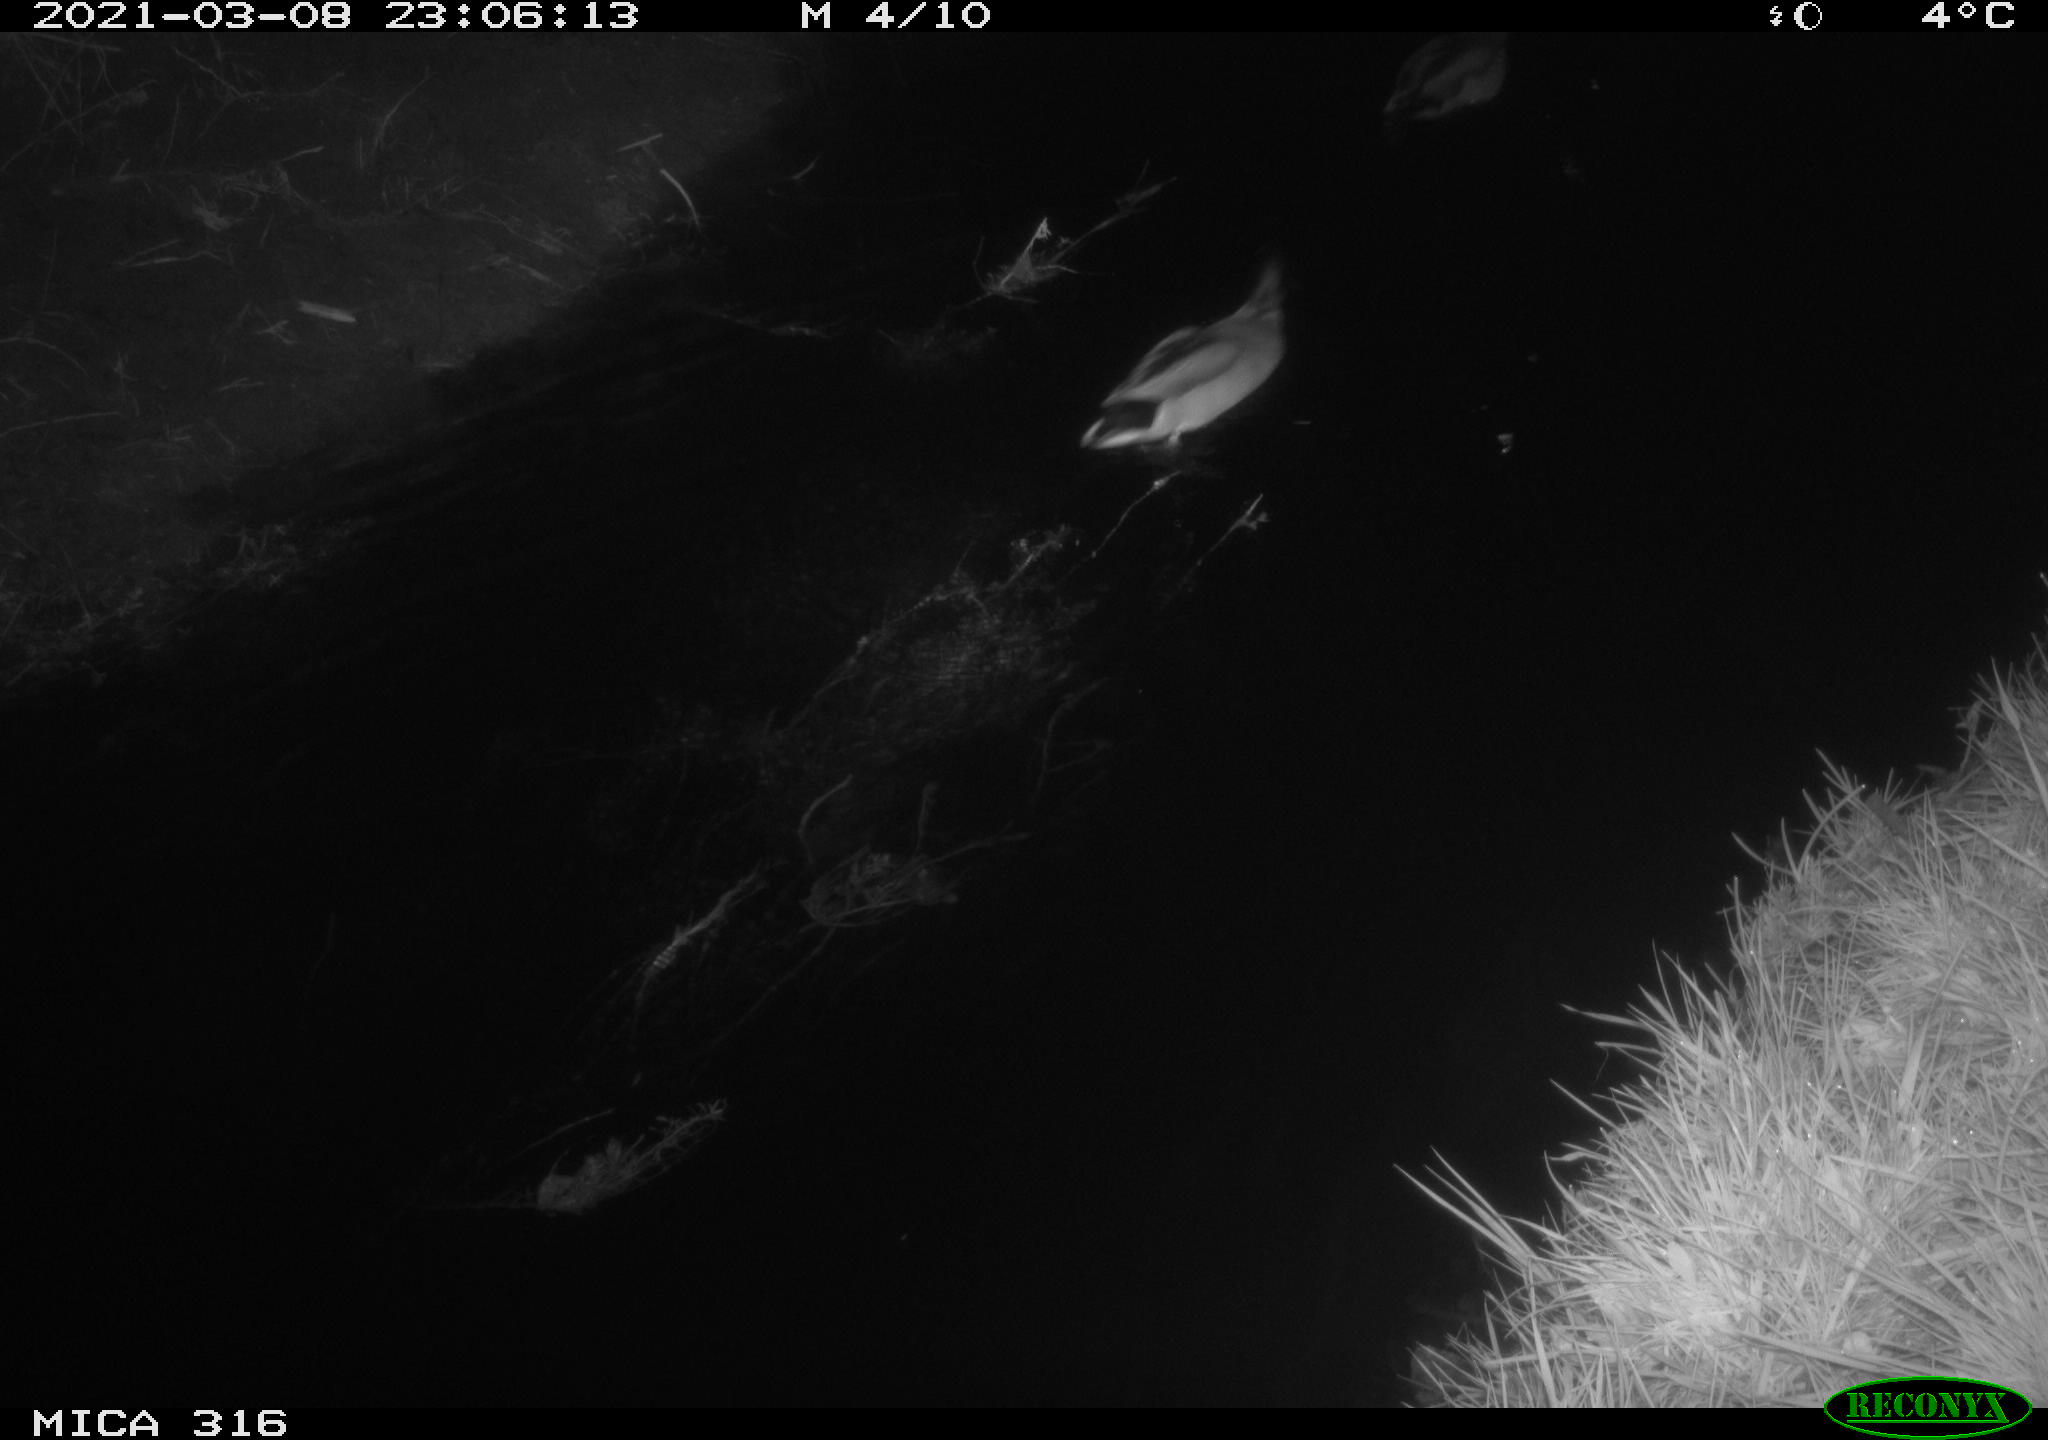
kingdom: Animalia
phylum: Chordata
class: Aves
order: Anseriformes
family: Anatidae
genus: Anas
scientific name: Anas platyrhynchos
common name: Mallard
